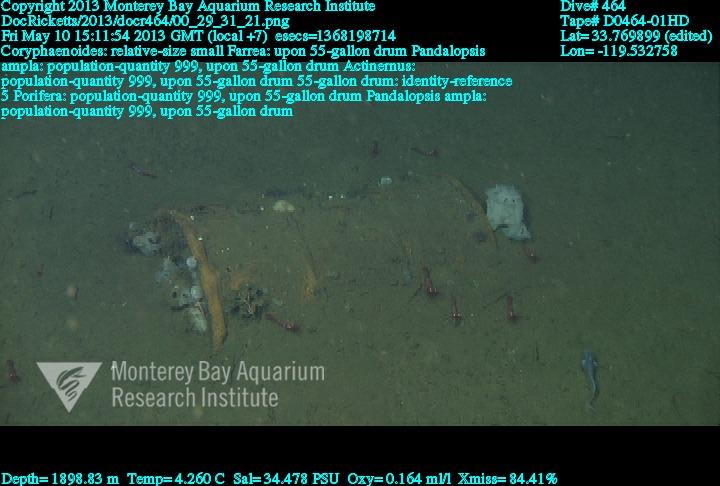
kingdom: Animalia
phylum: Porifera
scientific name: Porifera
